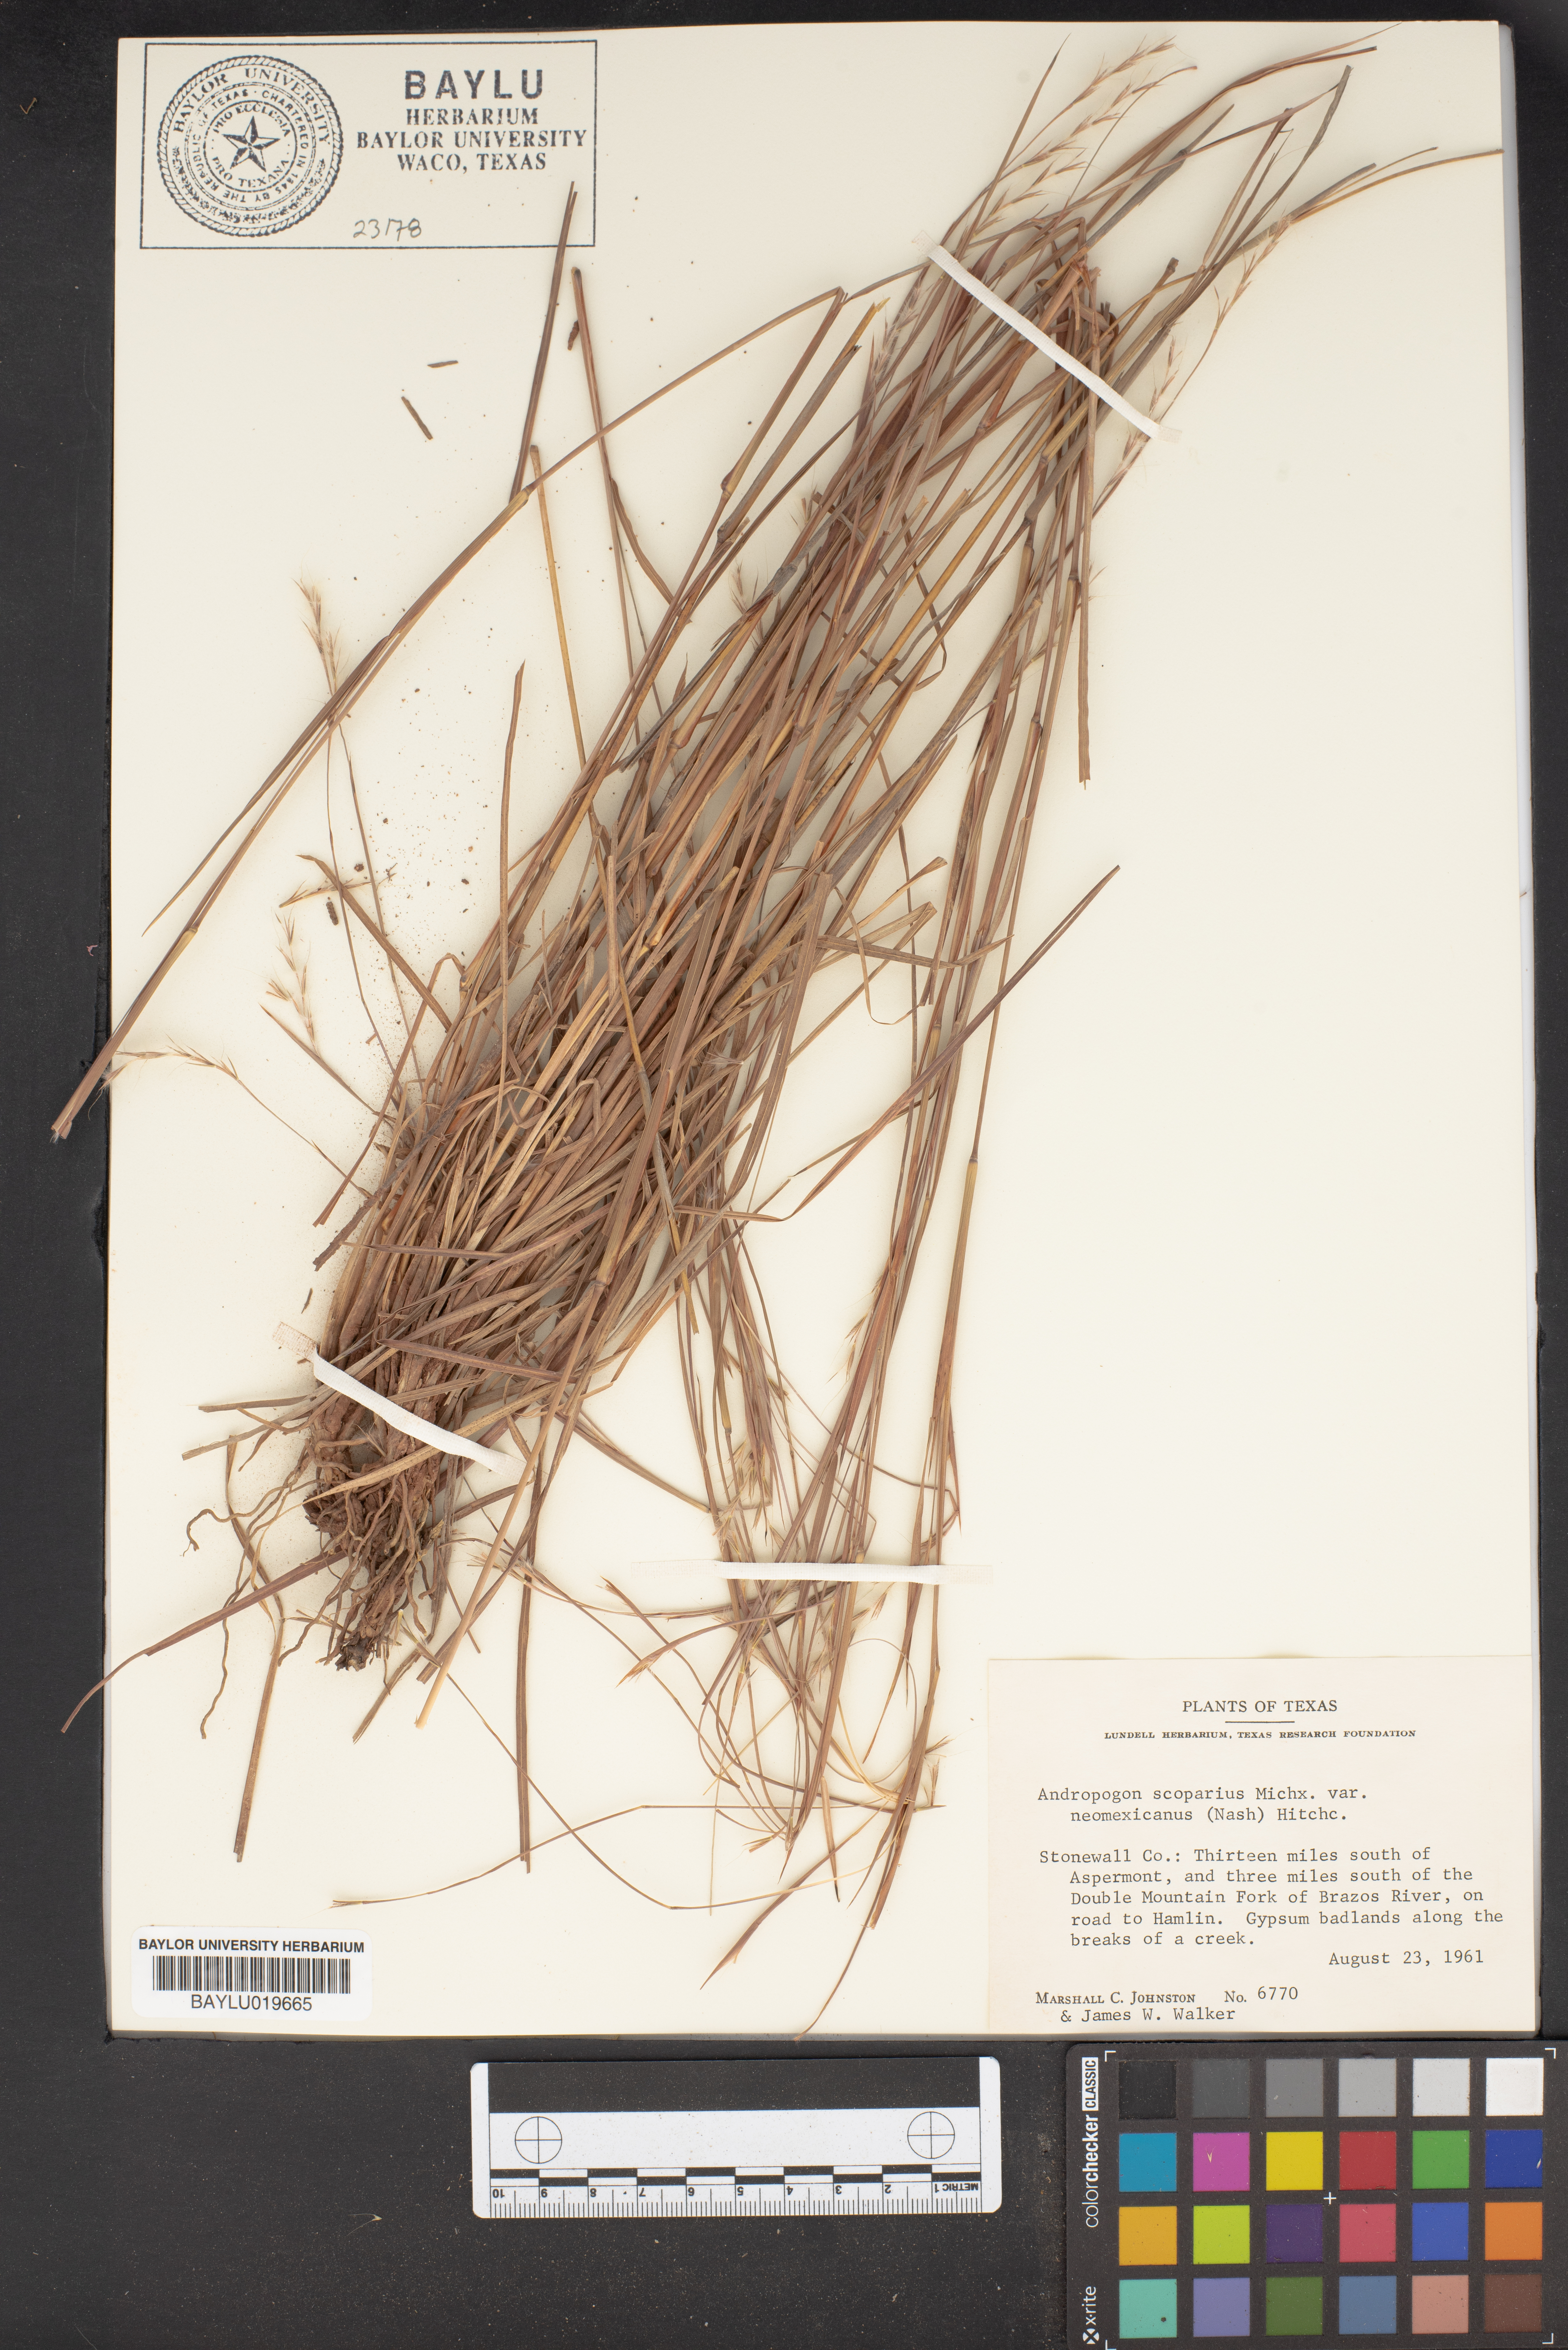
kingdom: Plantae
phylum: Tracheophyta
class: Liliopsida
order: Poales
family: Poaceae
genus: Schizachyrium
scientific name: Schizachyrium scoparium
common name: Little bluestem
